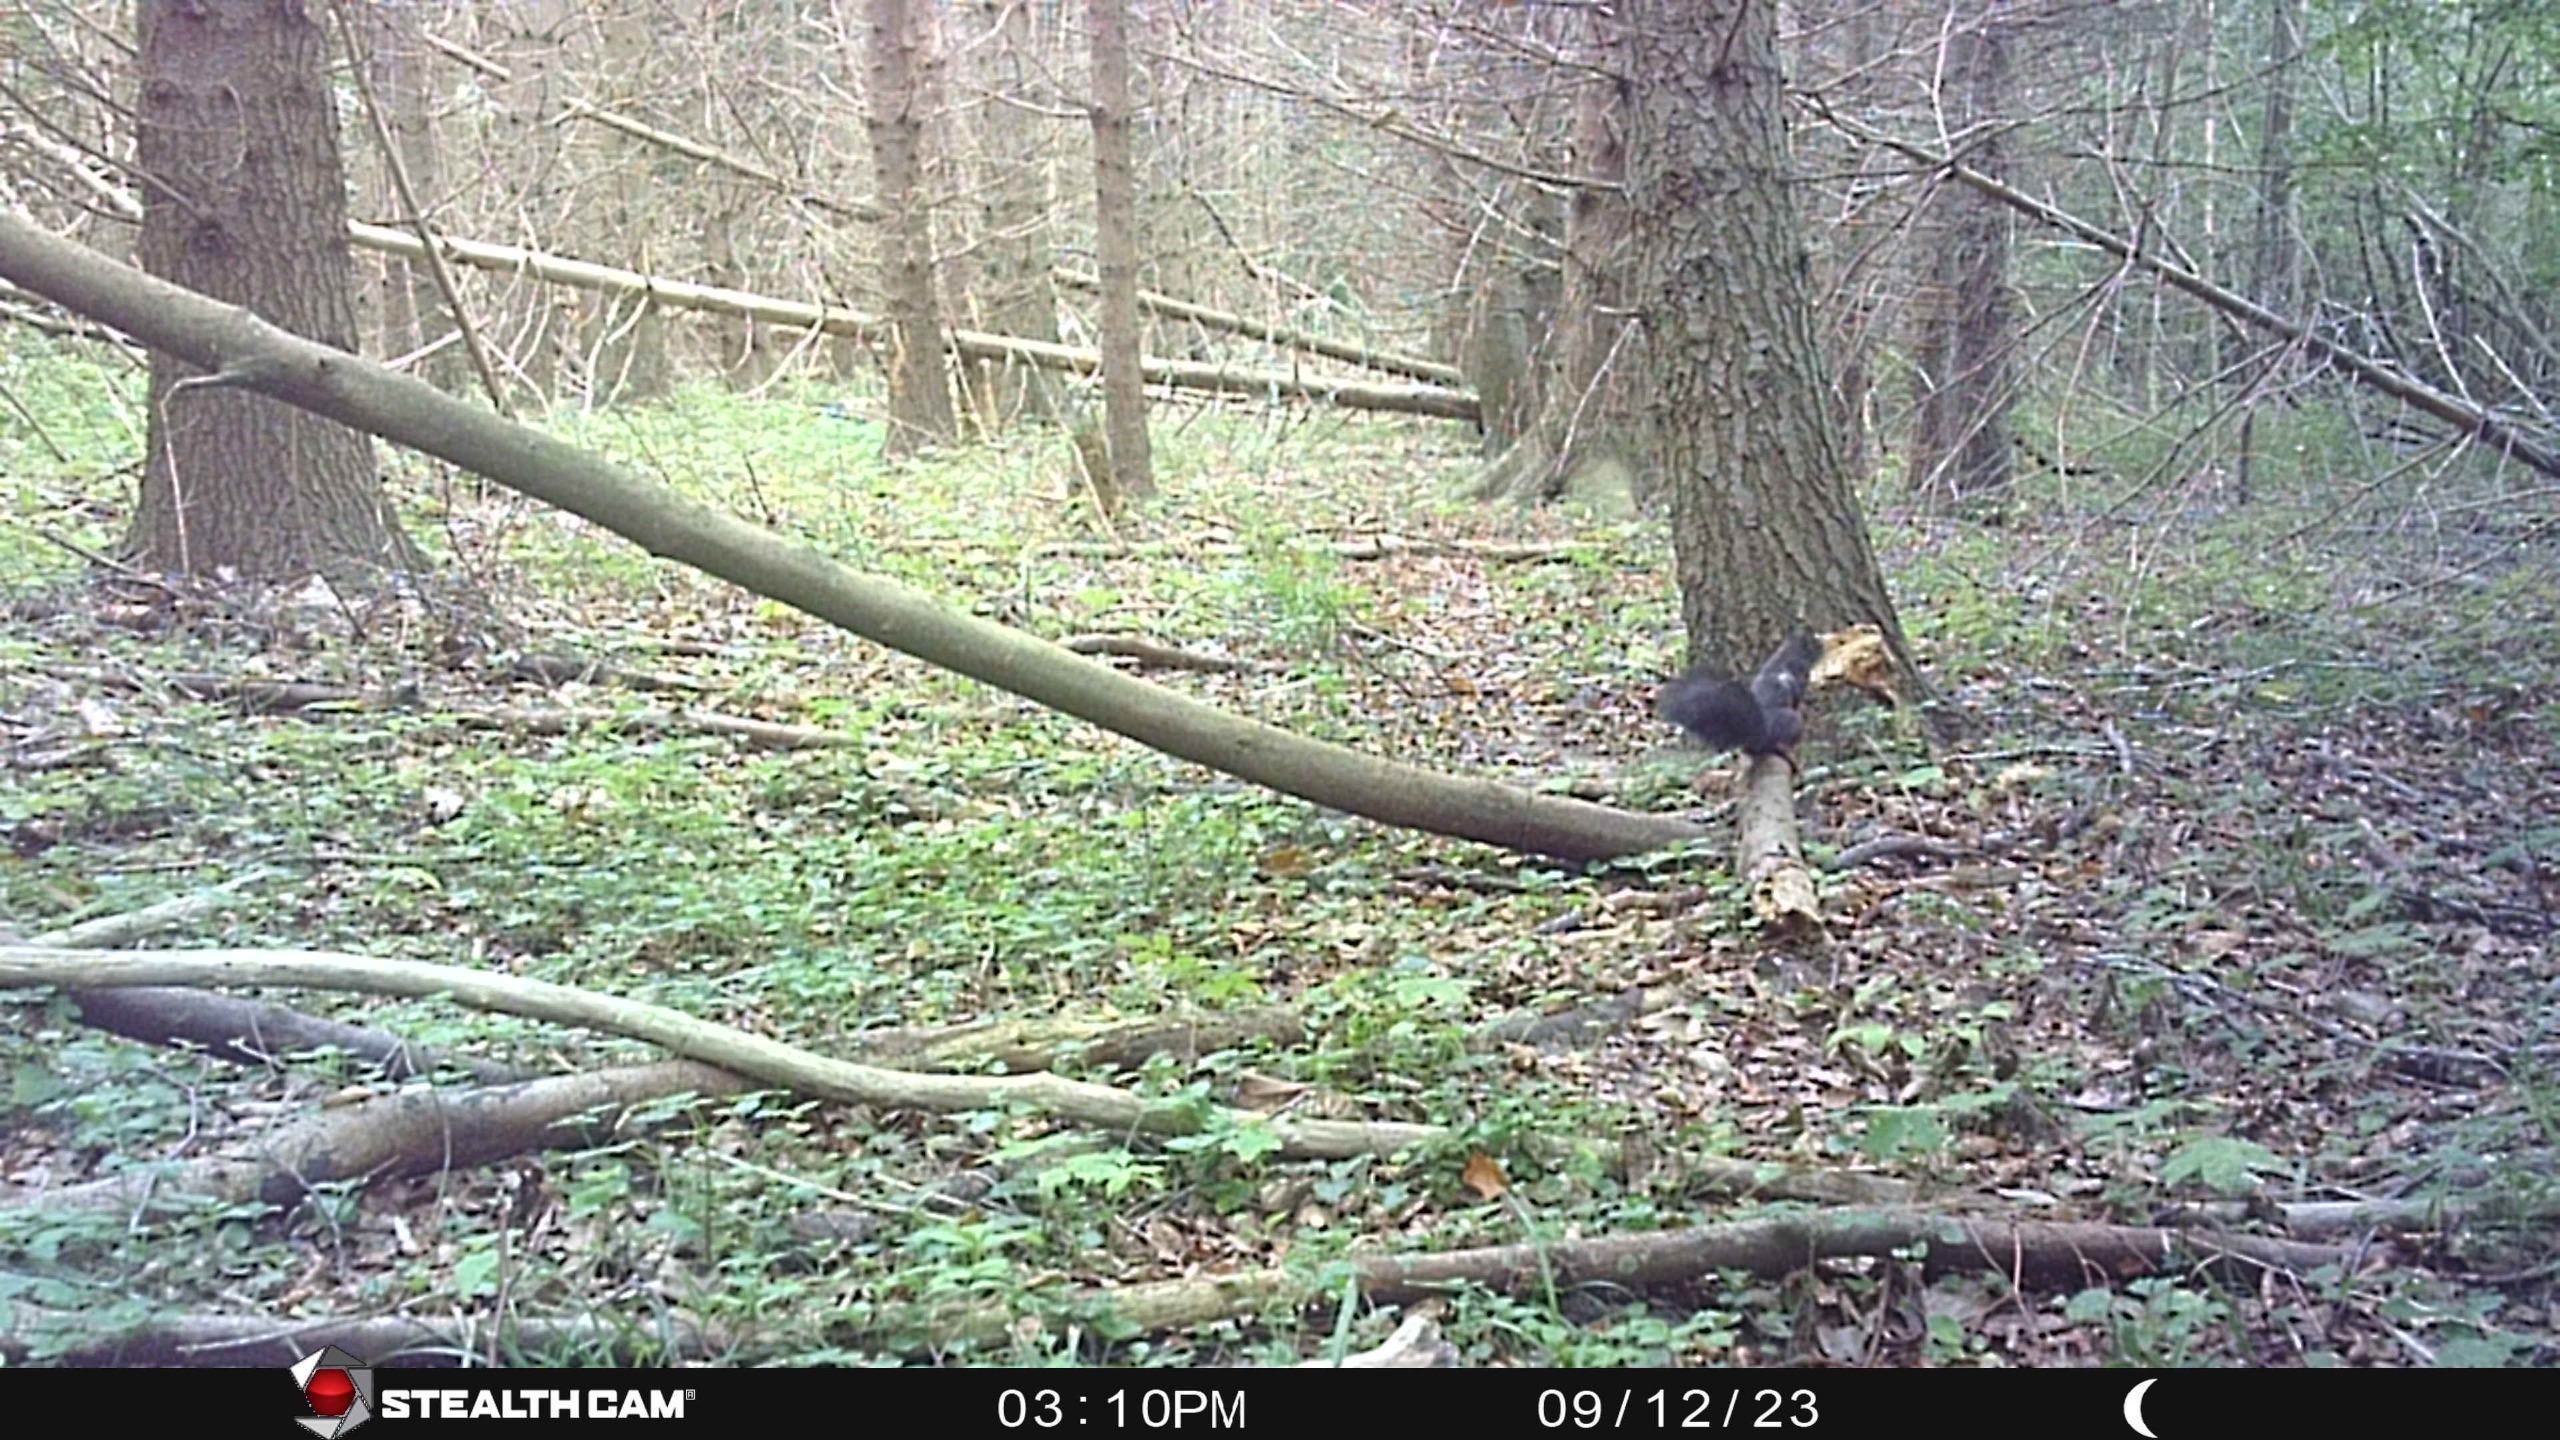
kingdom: Animalia
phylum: Chordata
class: Mammalia
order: Rodentia
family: Sciuridae
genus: Sciurus
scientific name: Sciurus vulgaris
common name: Egern
